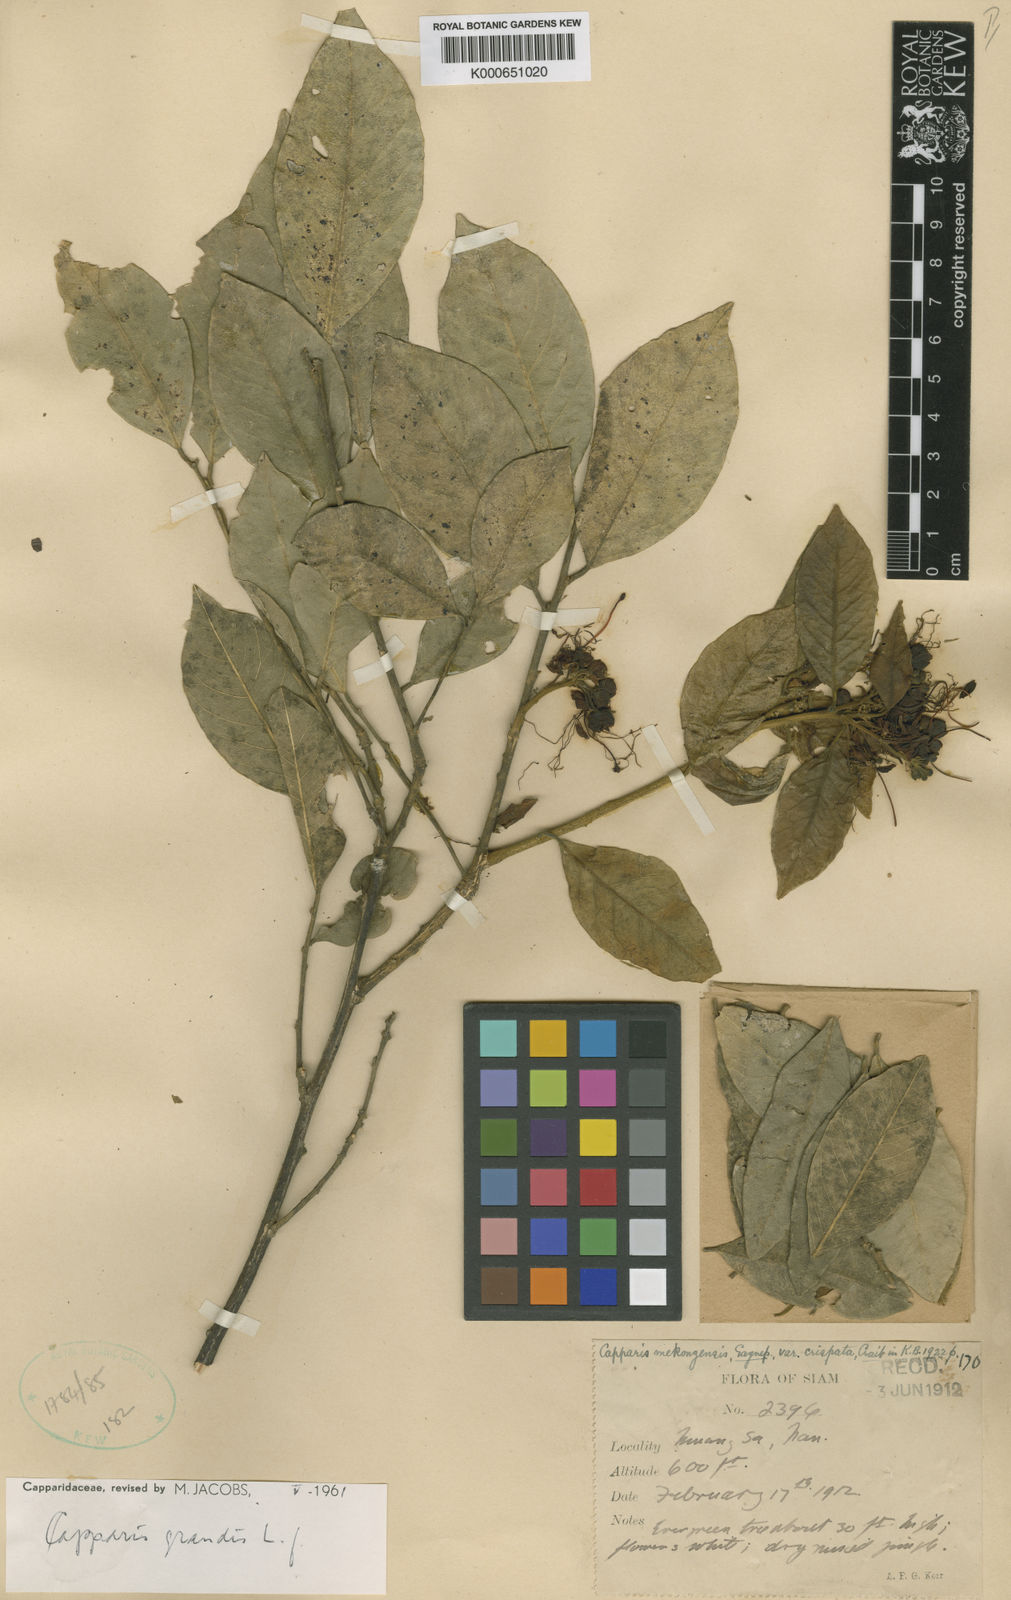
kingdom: Plantae
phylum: Tracheophyta
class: Magnoliopsida
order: Brassicales
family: Capparaceae
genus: Capparis
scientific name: Capparis grandis
